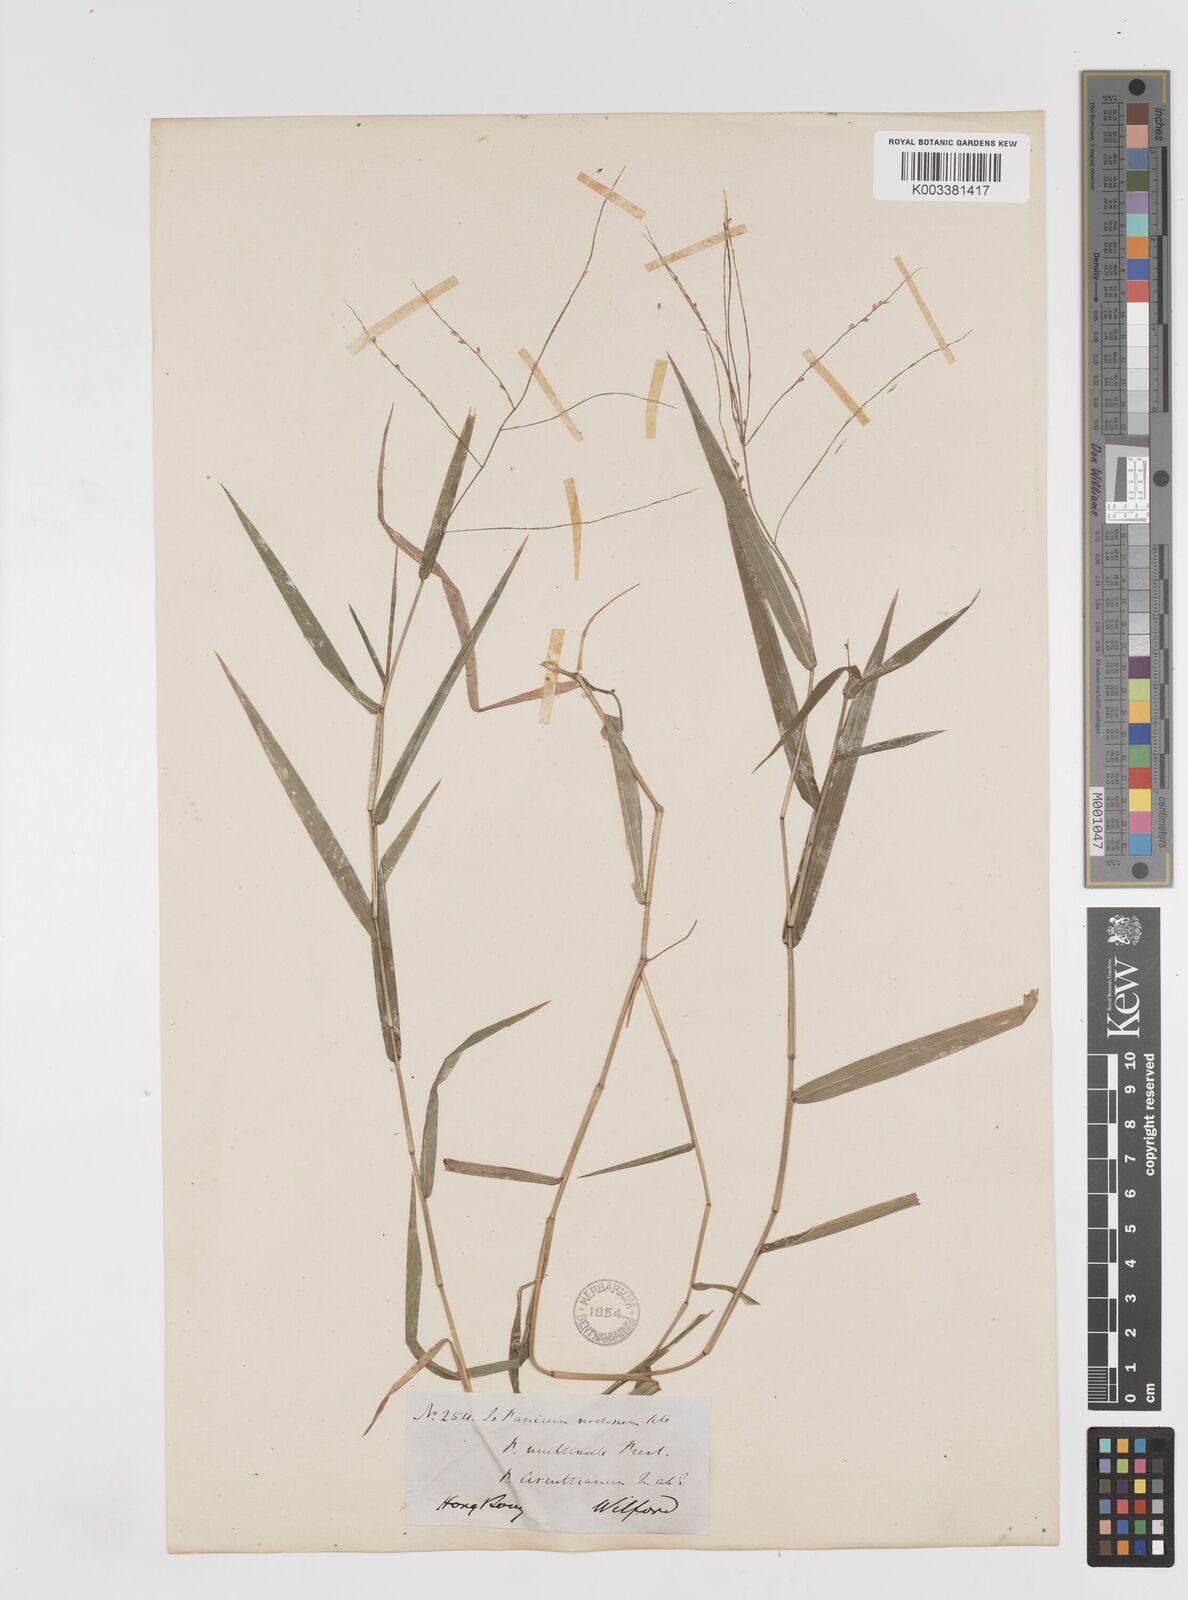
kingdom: Plantae
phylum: Tracheophyta
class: Liliopsida
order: Poales
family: Poaceae
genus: Ottochloa
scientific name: Ottochloa nodosa
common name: Slender-panic grass
